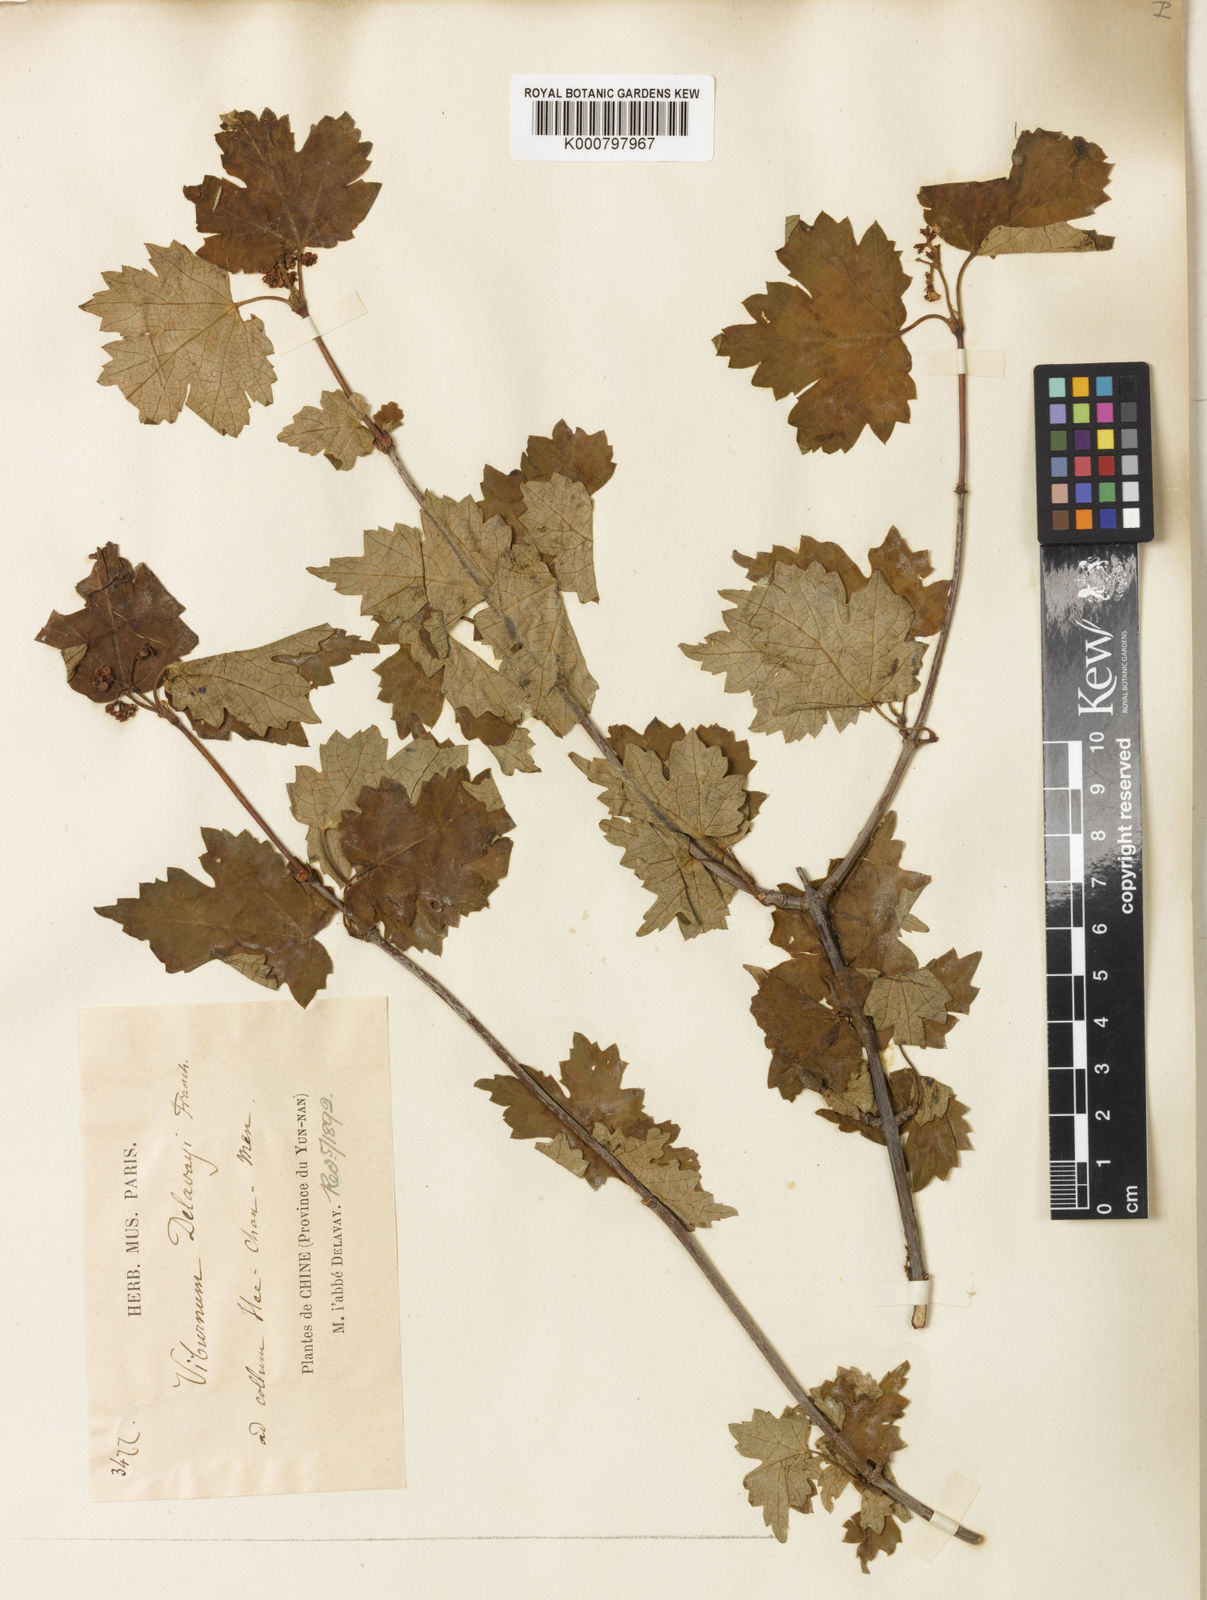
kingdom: Plantae
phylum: Tracheophyta
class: Magnoliopsida
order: Dipsacales
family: Viburnaceae
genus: Viburnum
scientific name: Viburnum kansuense
